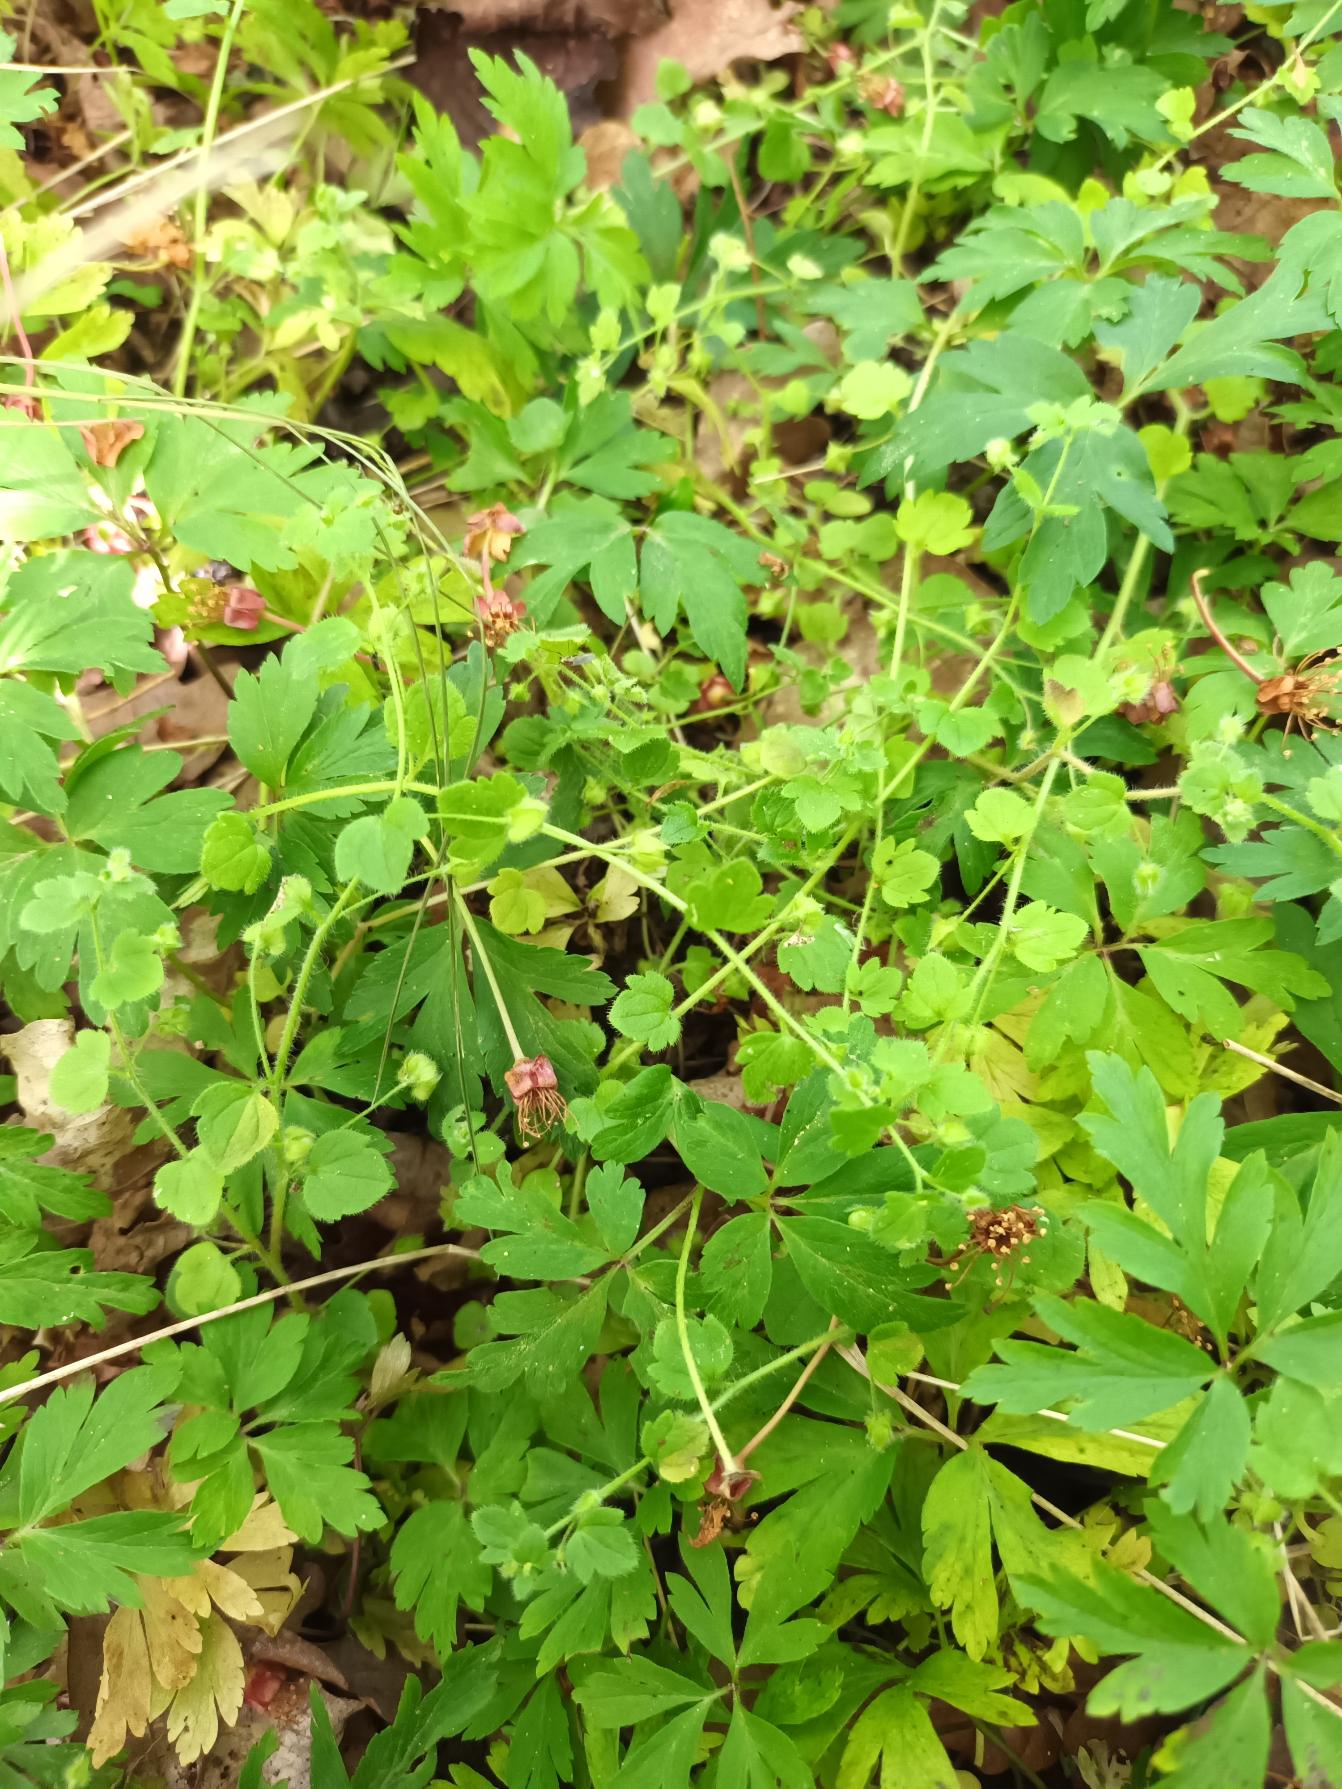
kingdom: Plantae
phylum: Tracheophyta
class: Magnoliopsida
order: Lamiales
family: Plantaginaceae
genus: Veronica
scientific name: Veronica sublobata
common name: Krat-ærenpris
